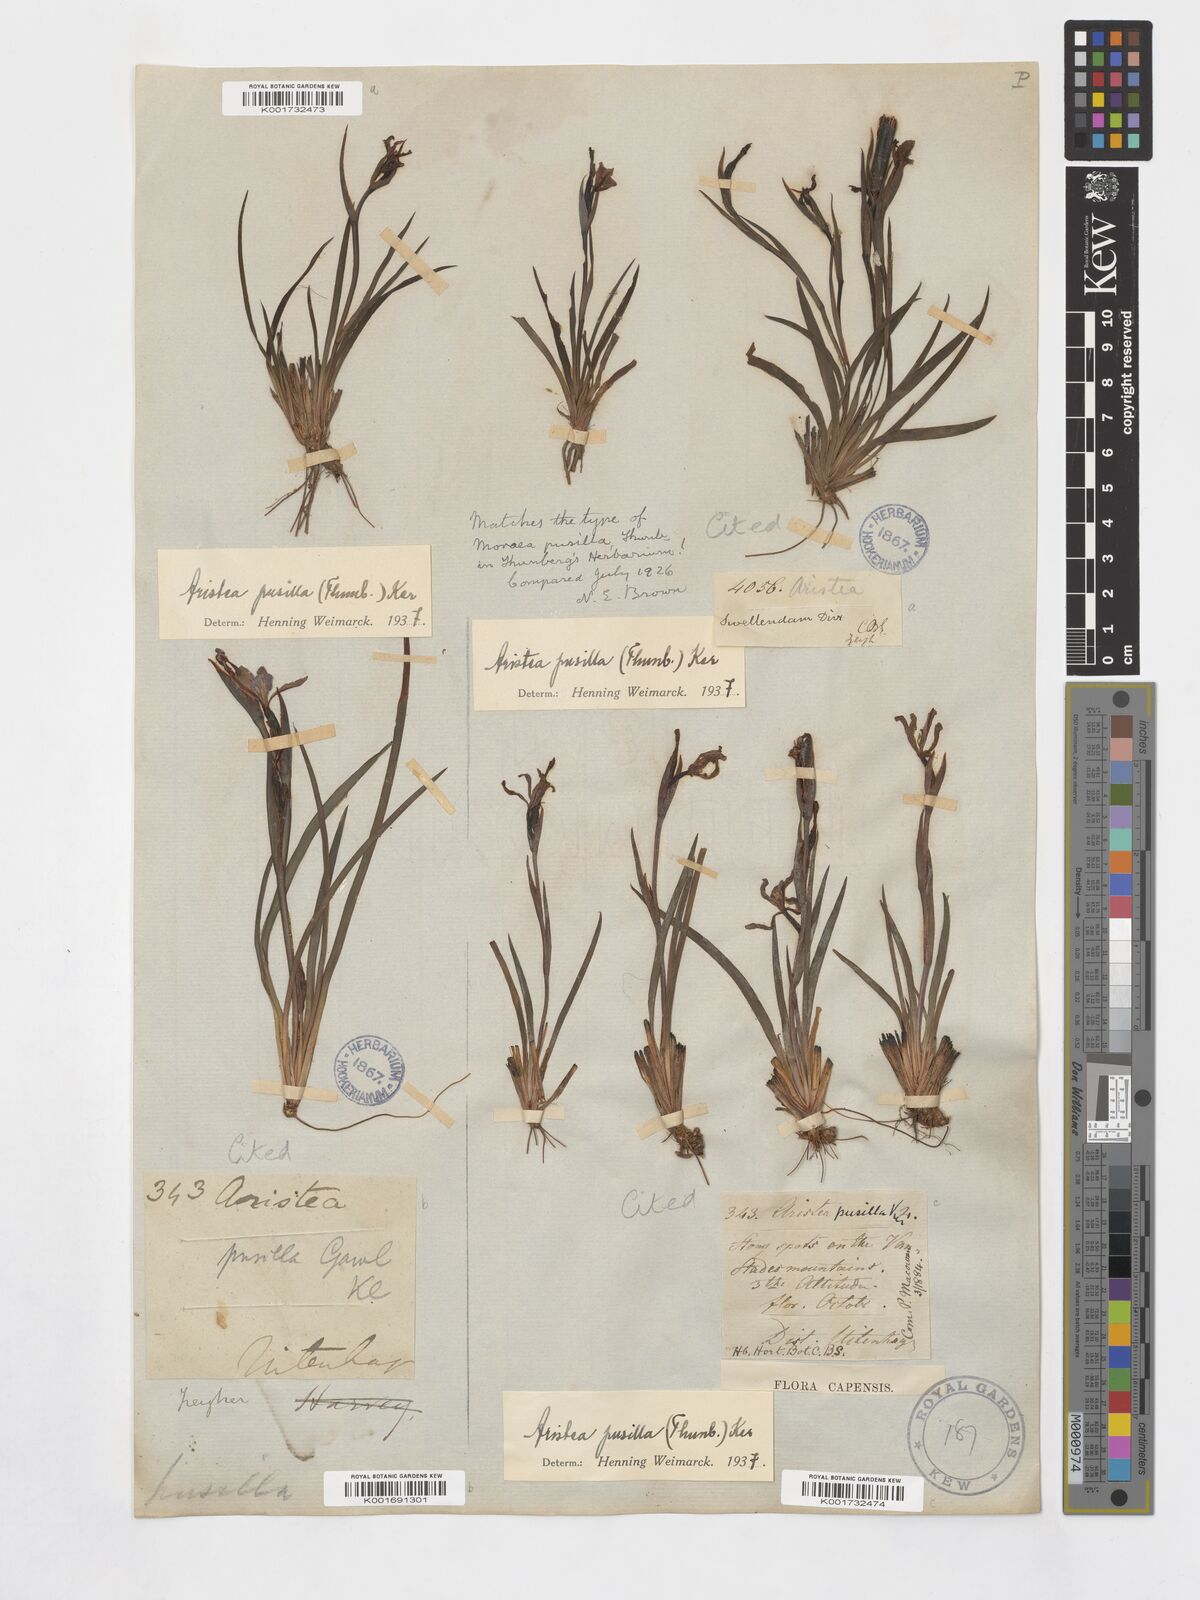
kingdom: Plantae
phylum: Tracheophyta
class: Liliopsida
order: Asparagales
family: Iridaceae
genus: Aristea
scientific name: Aristea pusilla
